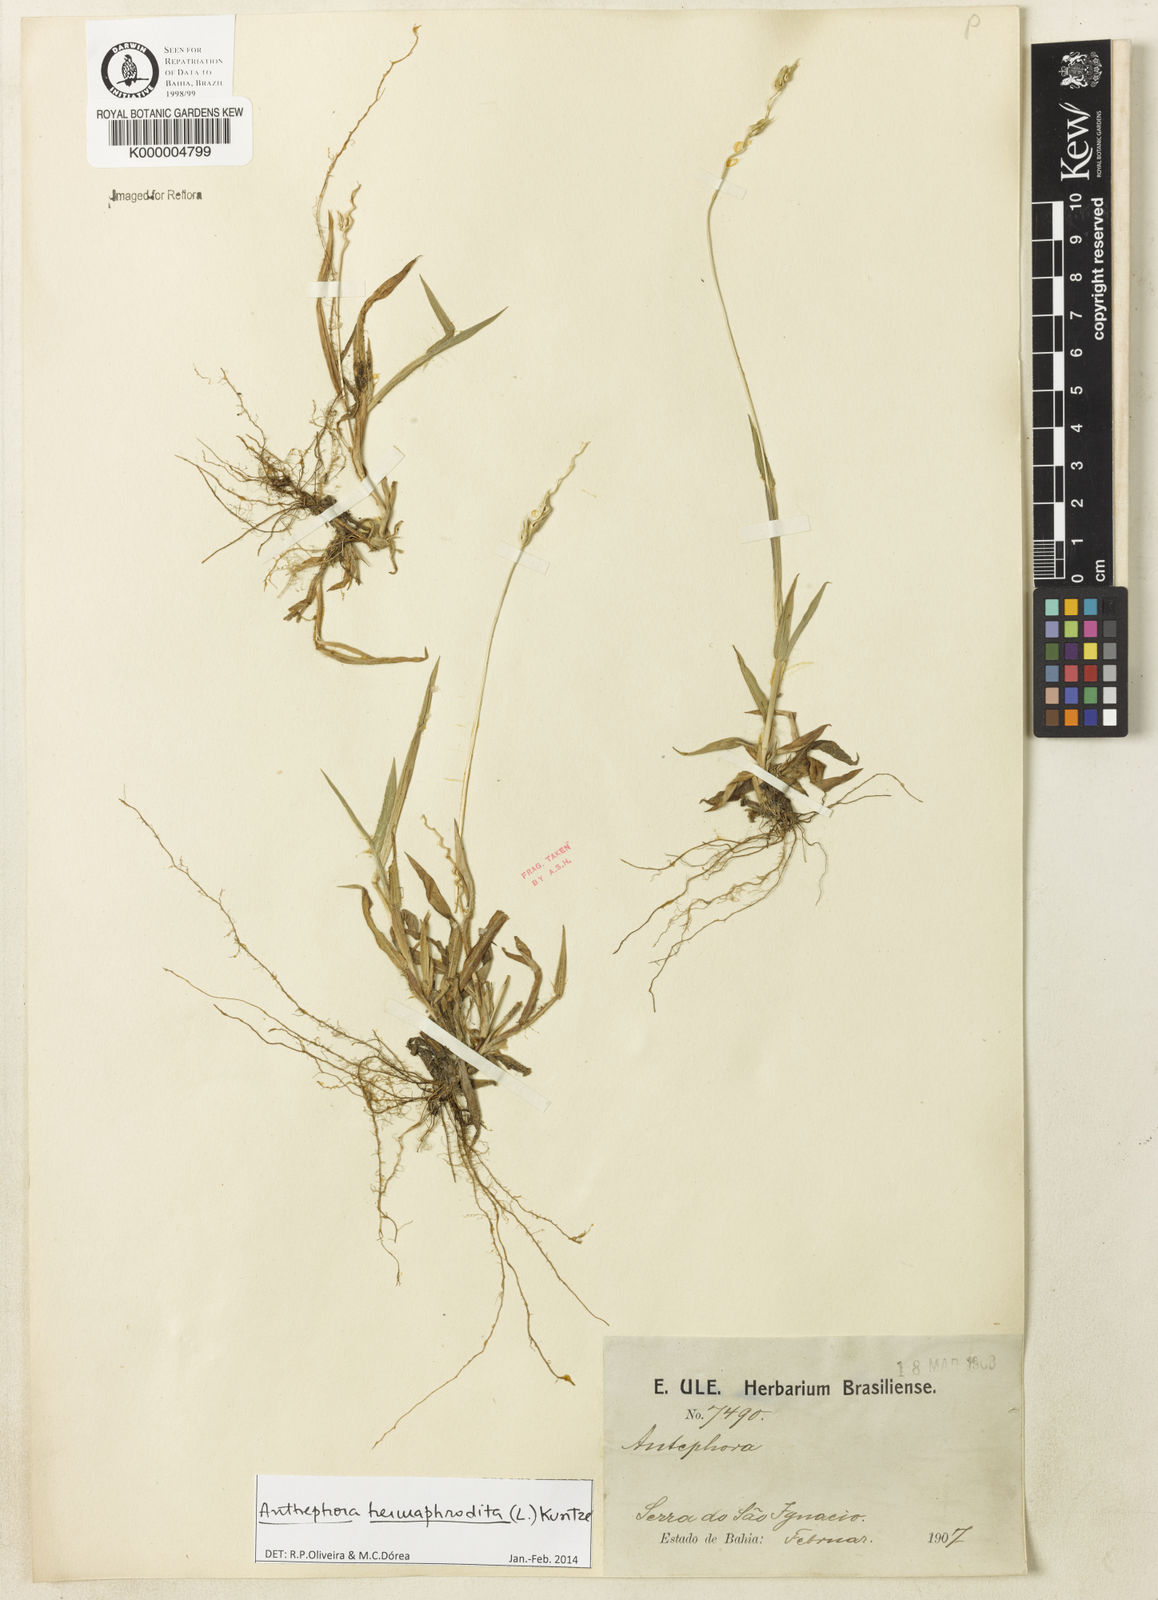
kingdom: Plantae
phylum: Tracheophyta
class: Liliopsida
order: Poales
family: Poaceae
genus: Anthephora
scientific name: Anthephora hermaphrodita
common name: Oldfield grass
